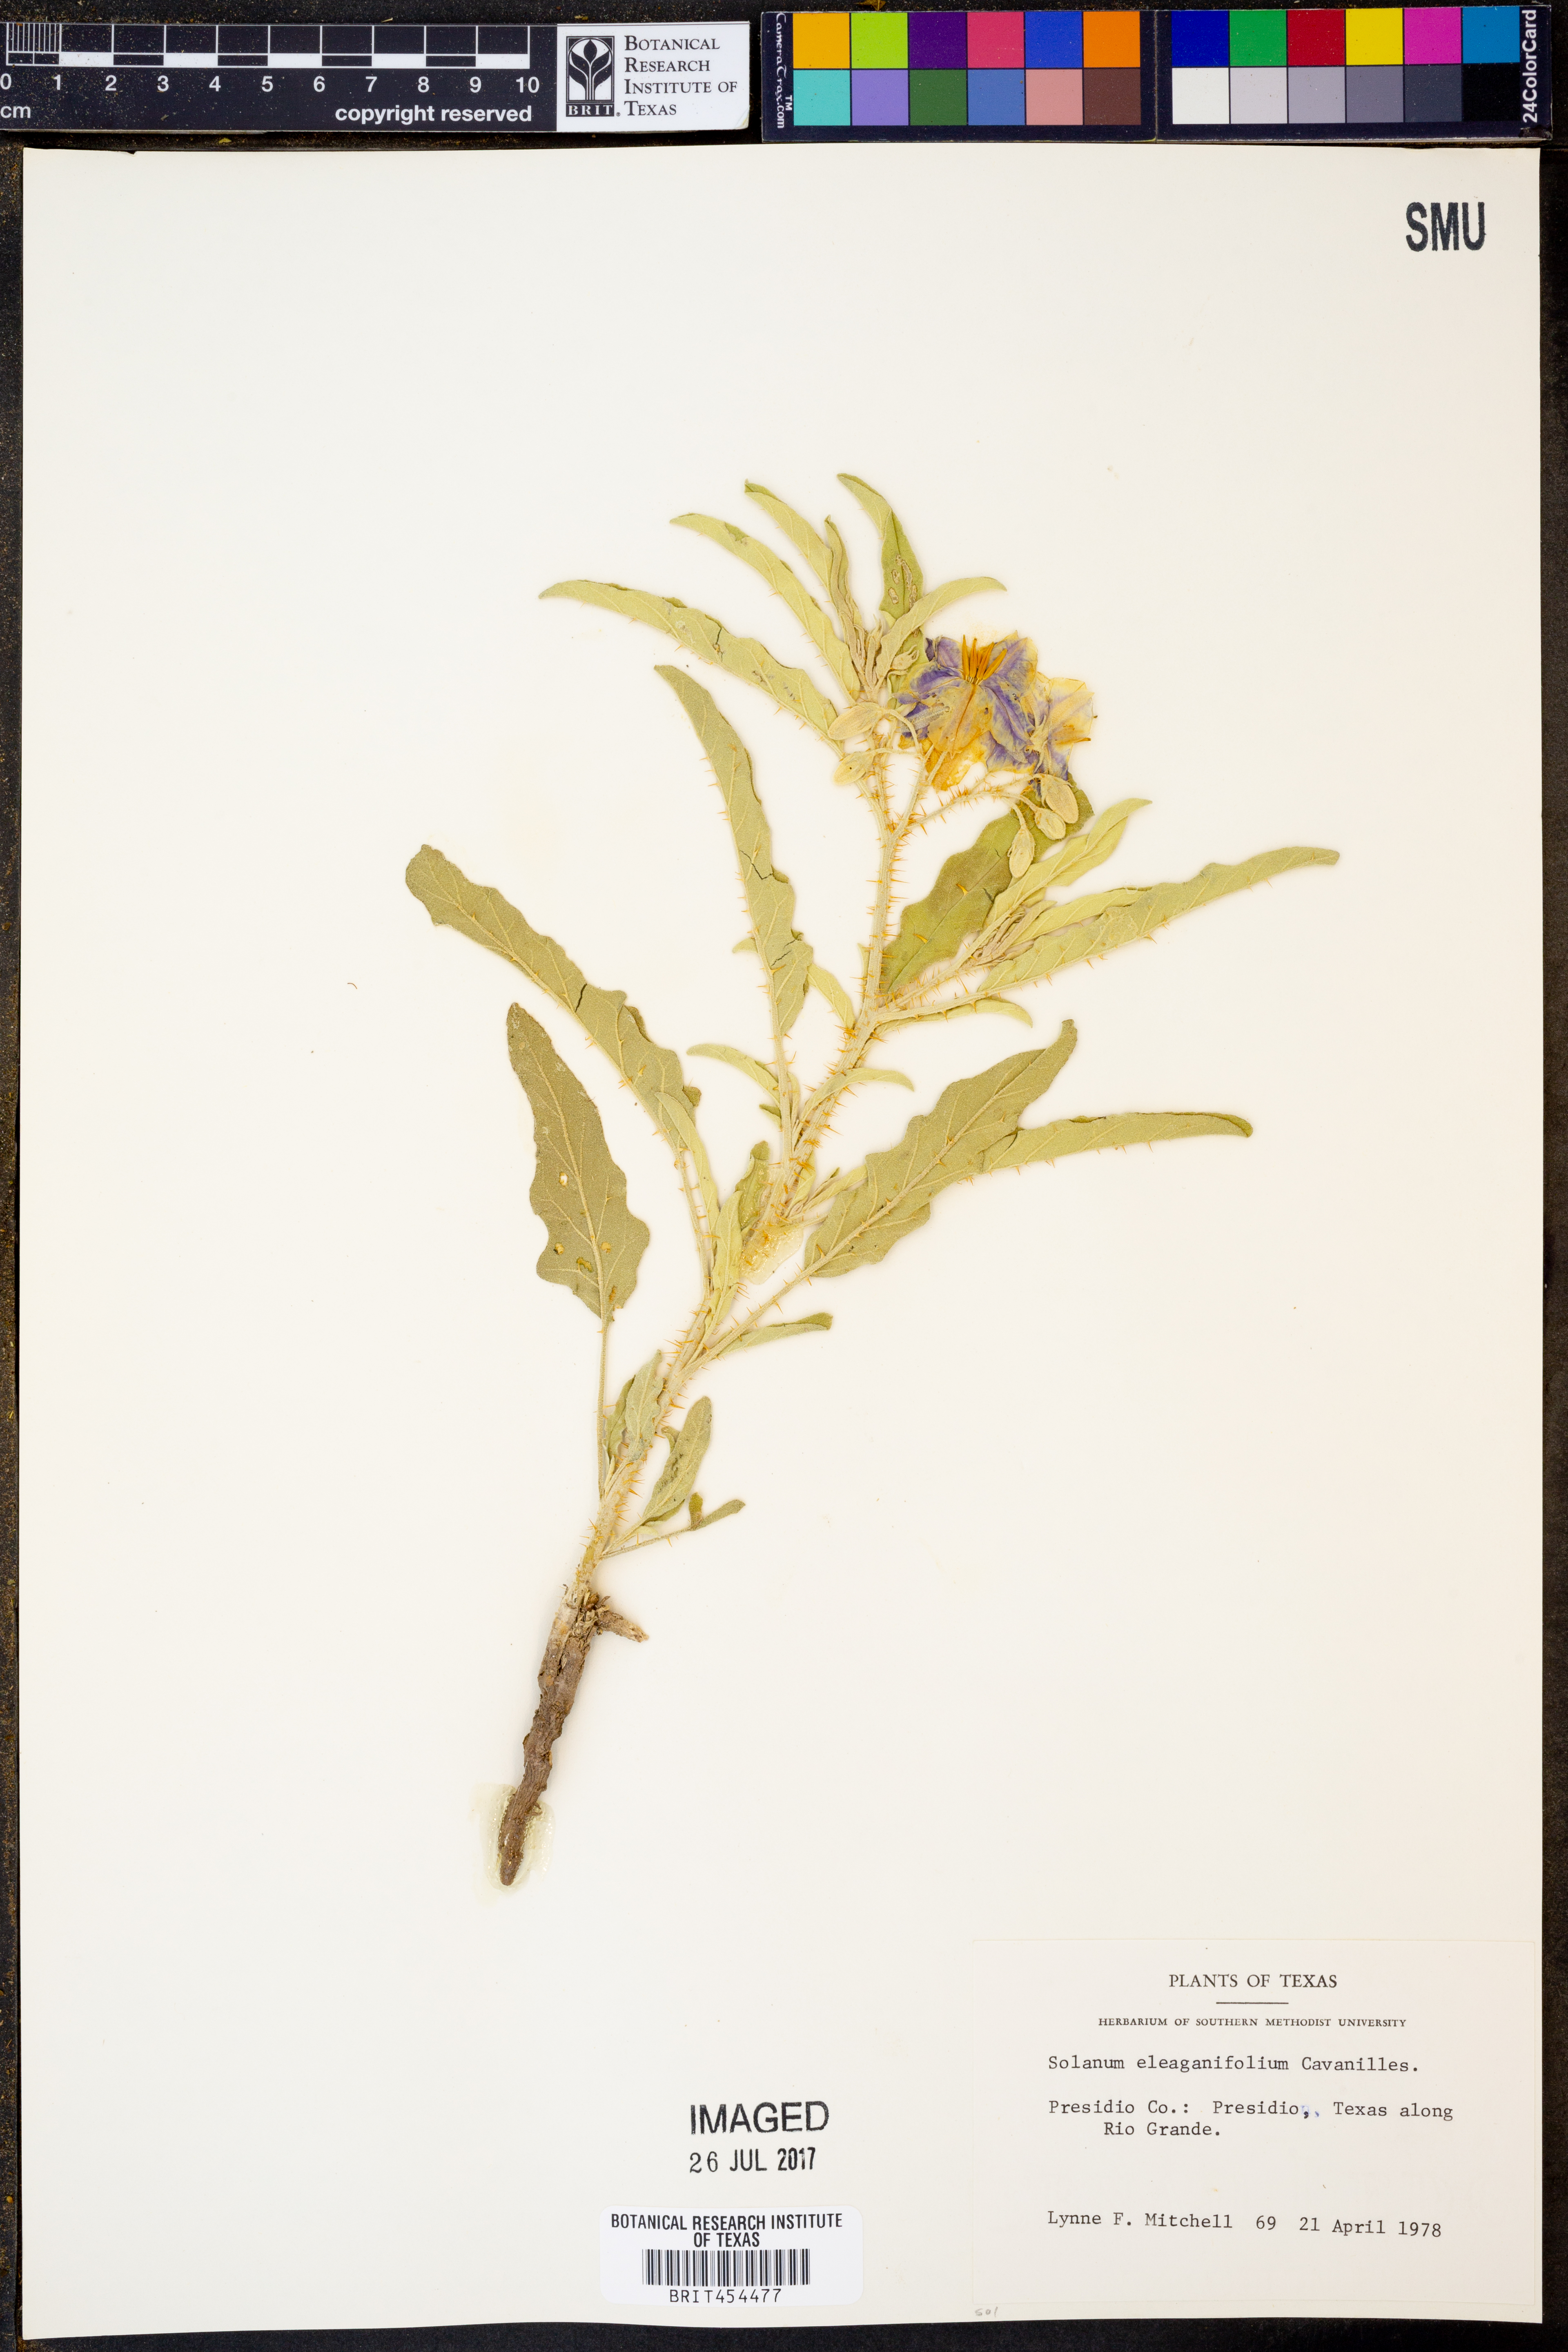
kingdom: Plantae
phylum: Tracheophyta
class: Magnoliopsida
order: Solanales
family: Solanaceae
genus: Solanum
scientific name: Solanum elaeagnifolium
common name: Silverleaf nightshade
